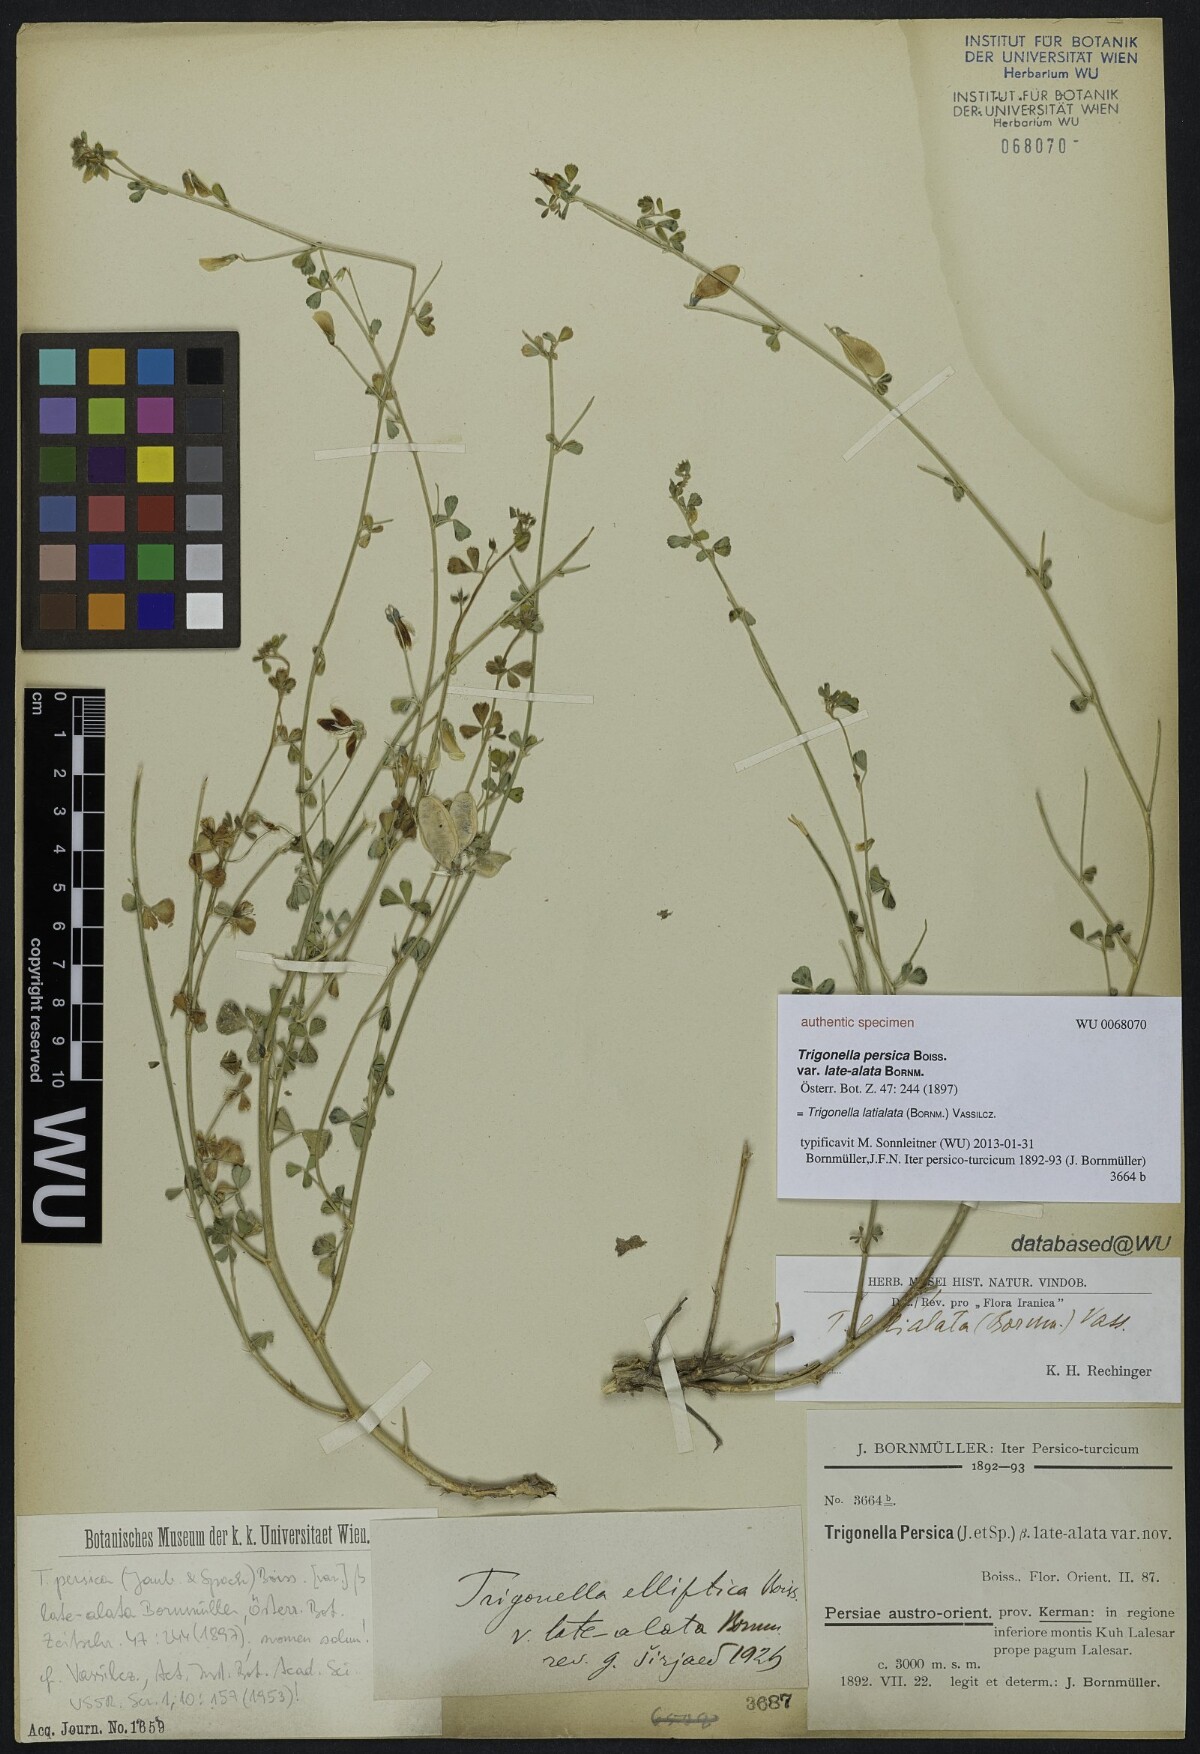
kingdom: Plantae
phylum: Tracheophyta
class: Magnoliopsida
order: Fabales
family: Fabaceae
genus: Trigonella
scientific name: Trigonella late-alata
